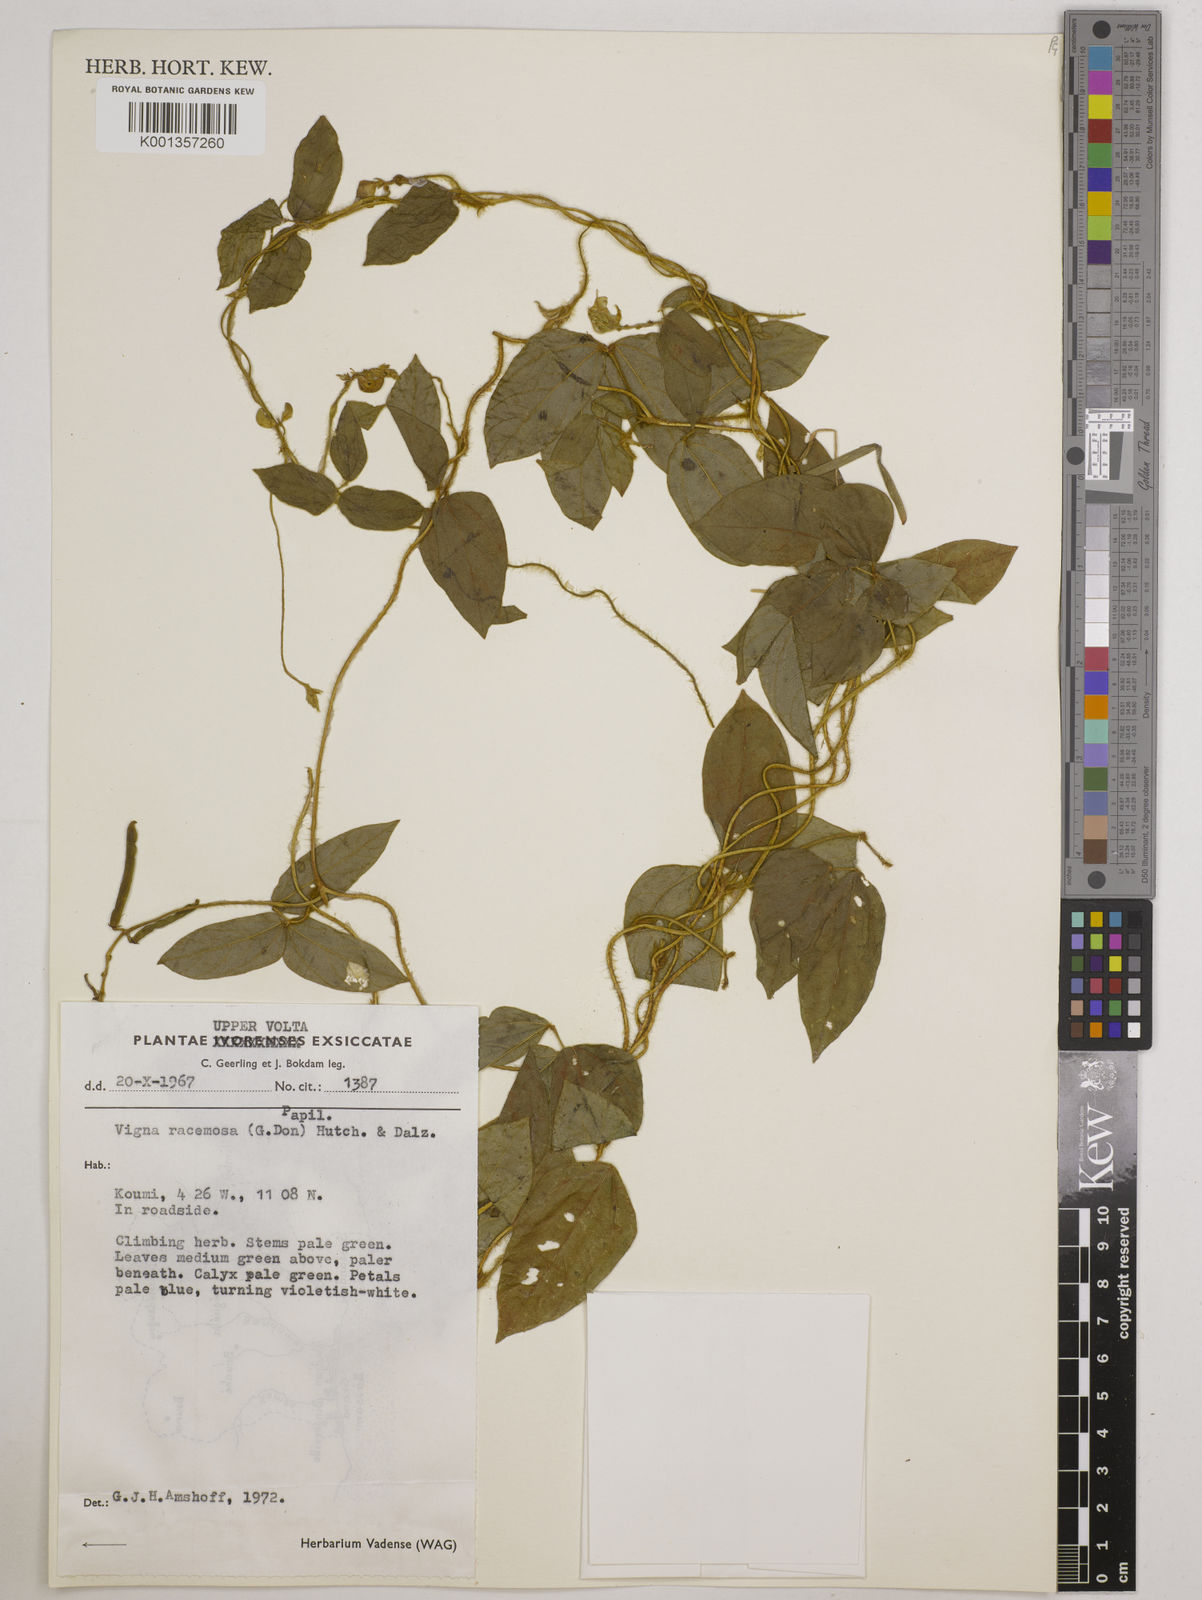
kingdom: Plantae
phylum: Tracheophyta
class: Magnoliopsida
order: Fabales
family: Fabaceae
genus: Vigna
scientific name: Vigna racemosa
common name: Beans not eaten
